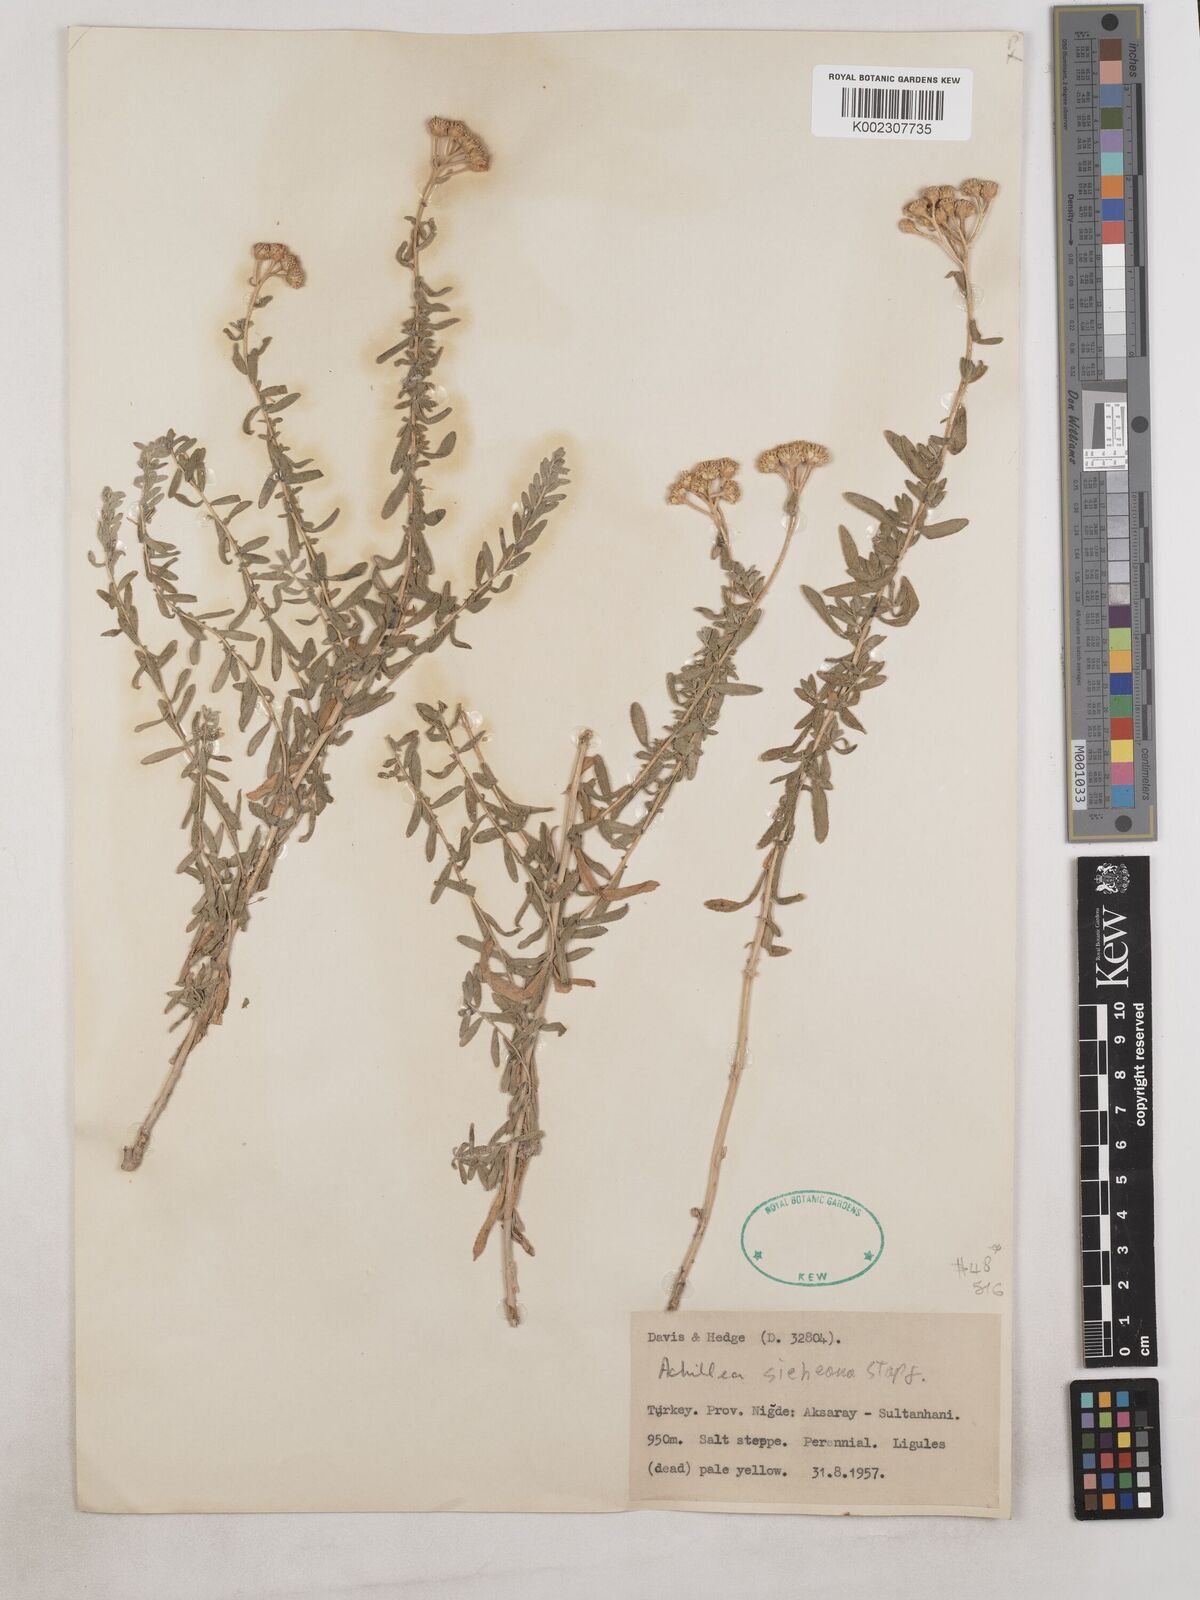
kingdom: Plantae
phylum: Tracheophyta
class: Magnoliopsida
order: Asterales
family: Asteraceae
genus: Achillea
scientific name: Achillea sieheana
